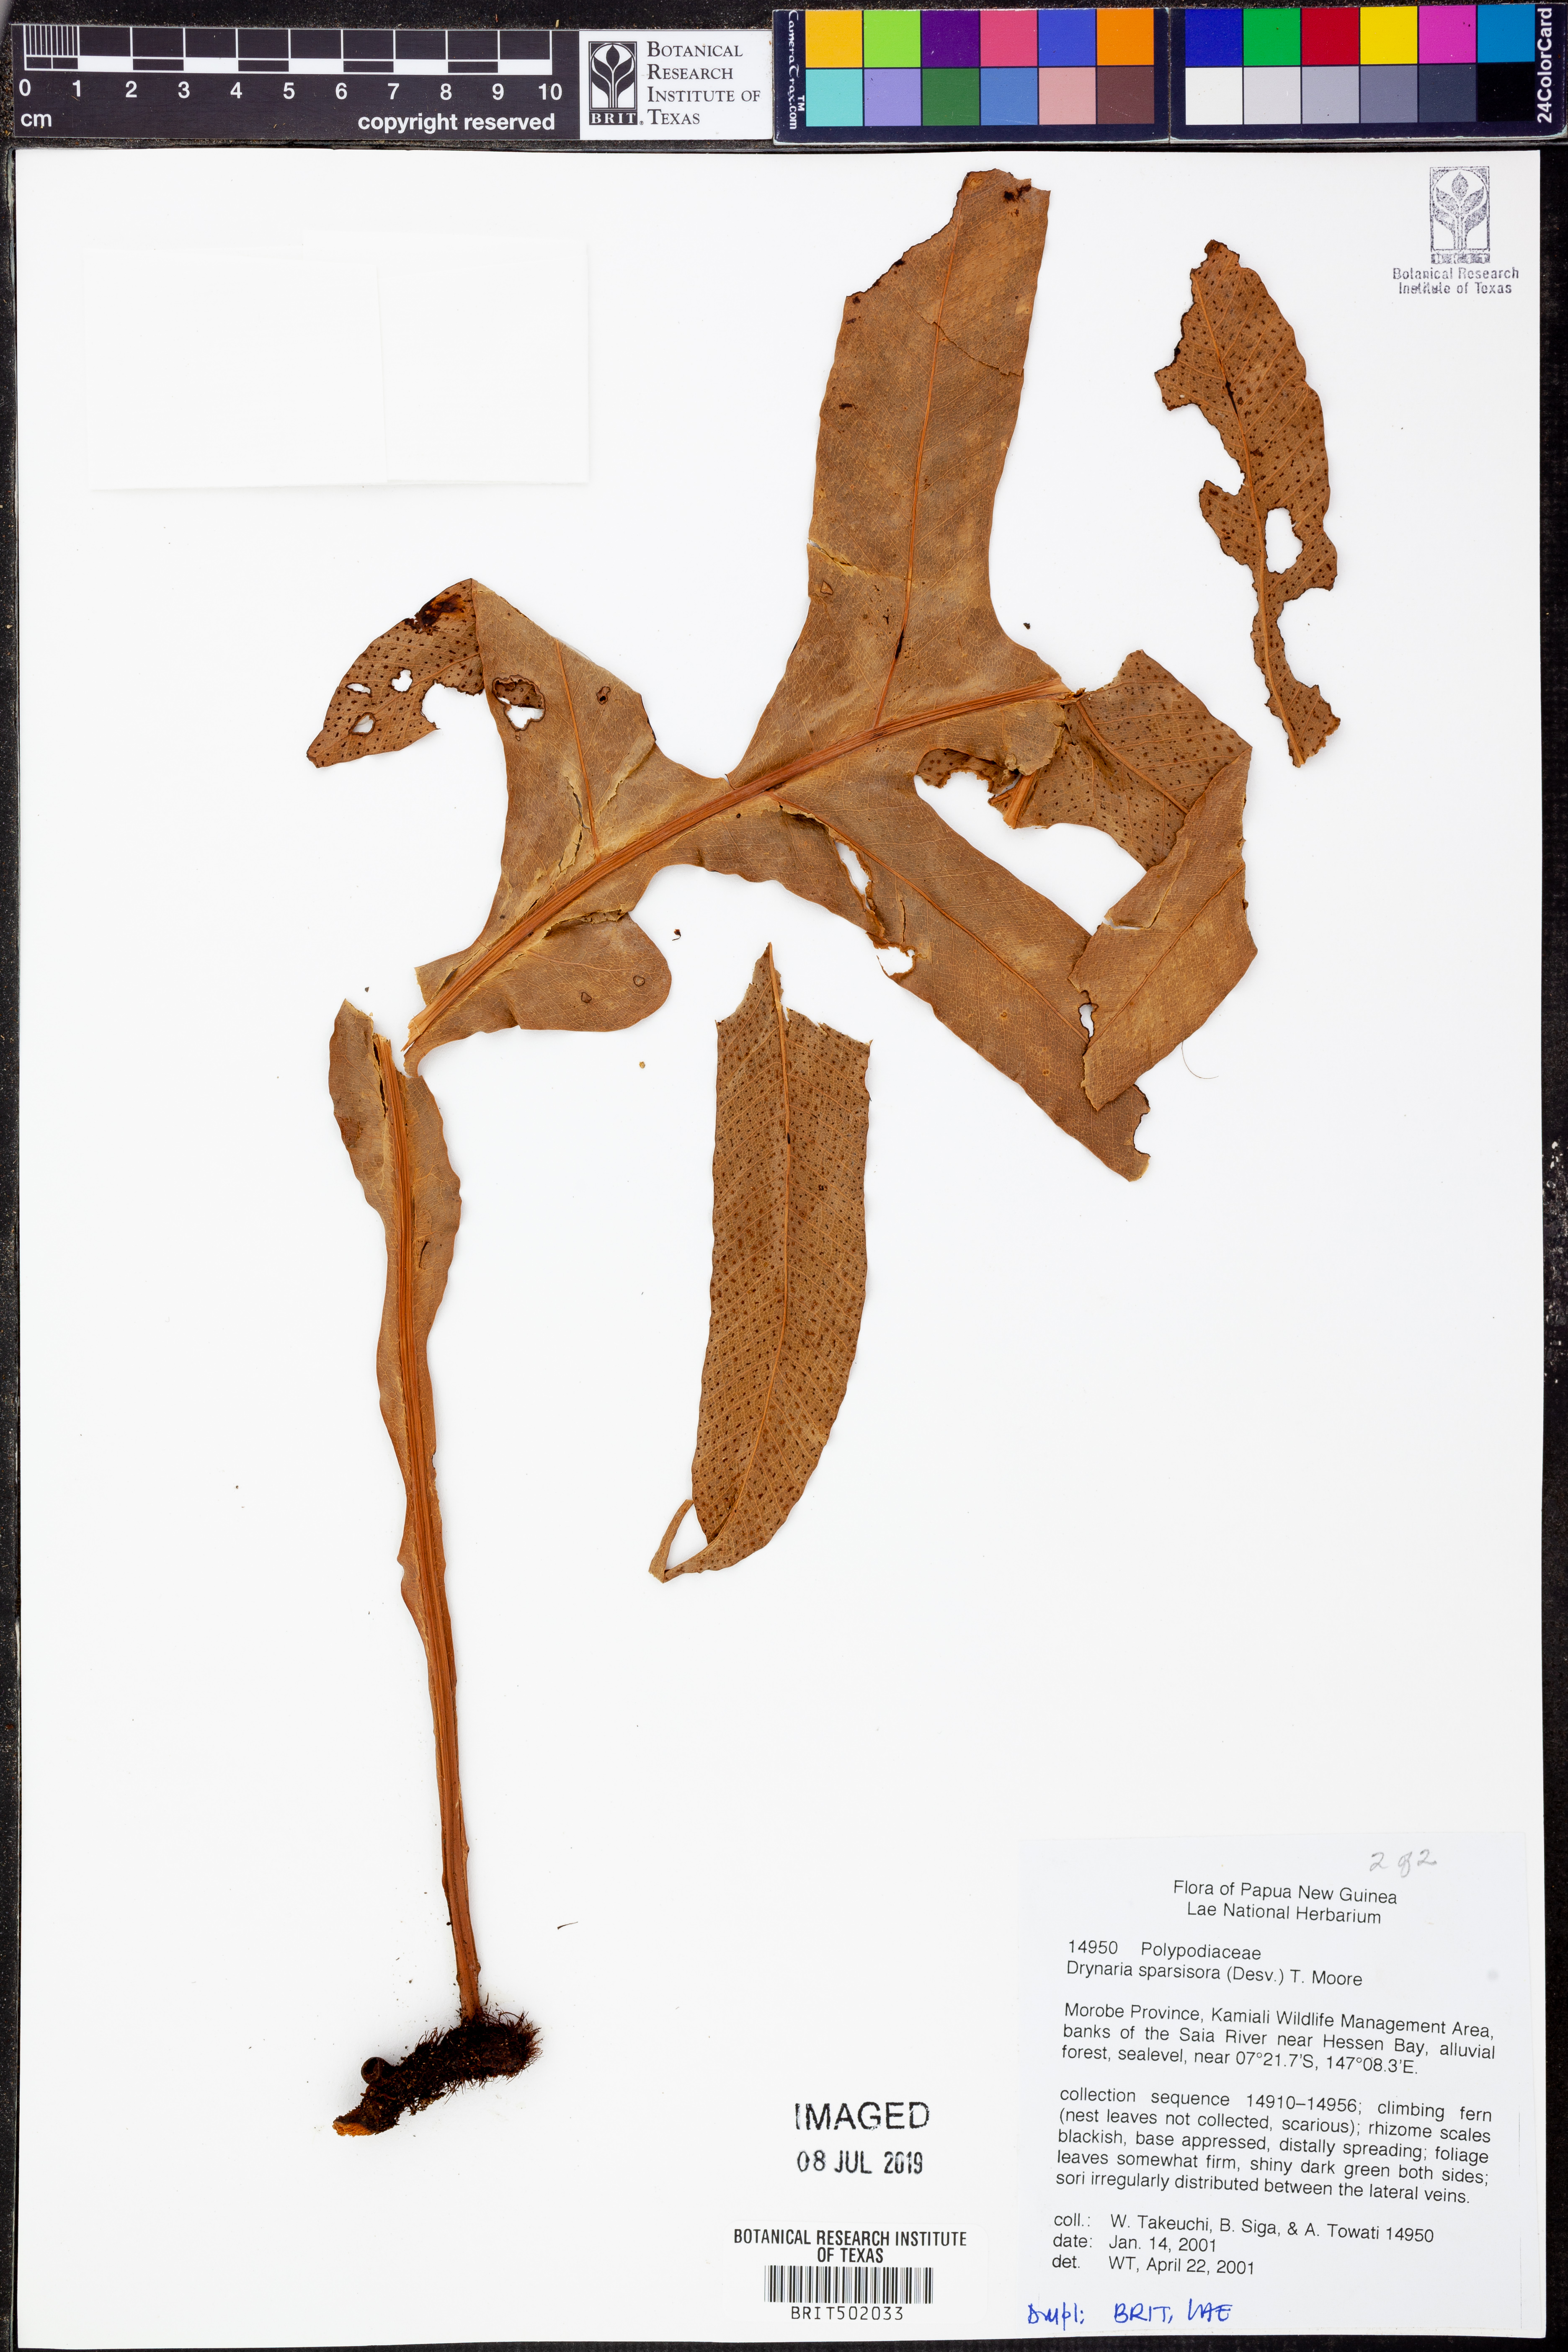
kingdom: Plantae
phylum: Tracheophyta
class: Polypodiopsida
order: Polypodiales
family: Polypodiaceae
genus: Drynaria
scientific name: Drynaria sparsisora
